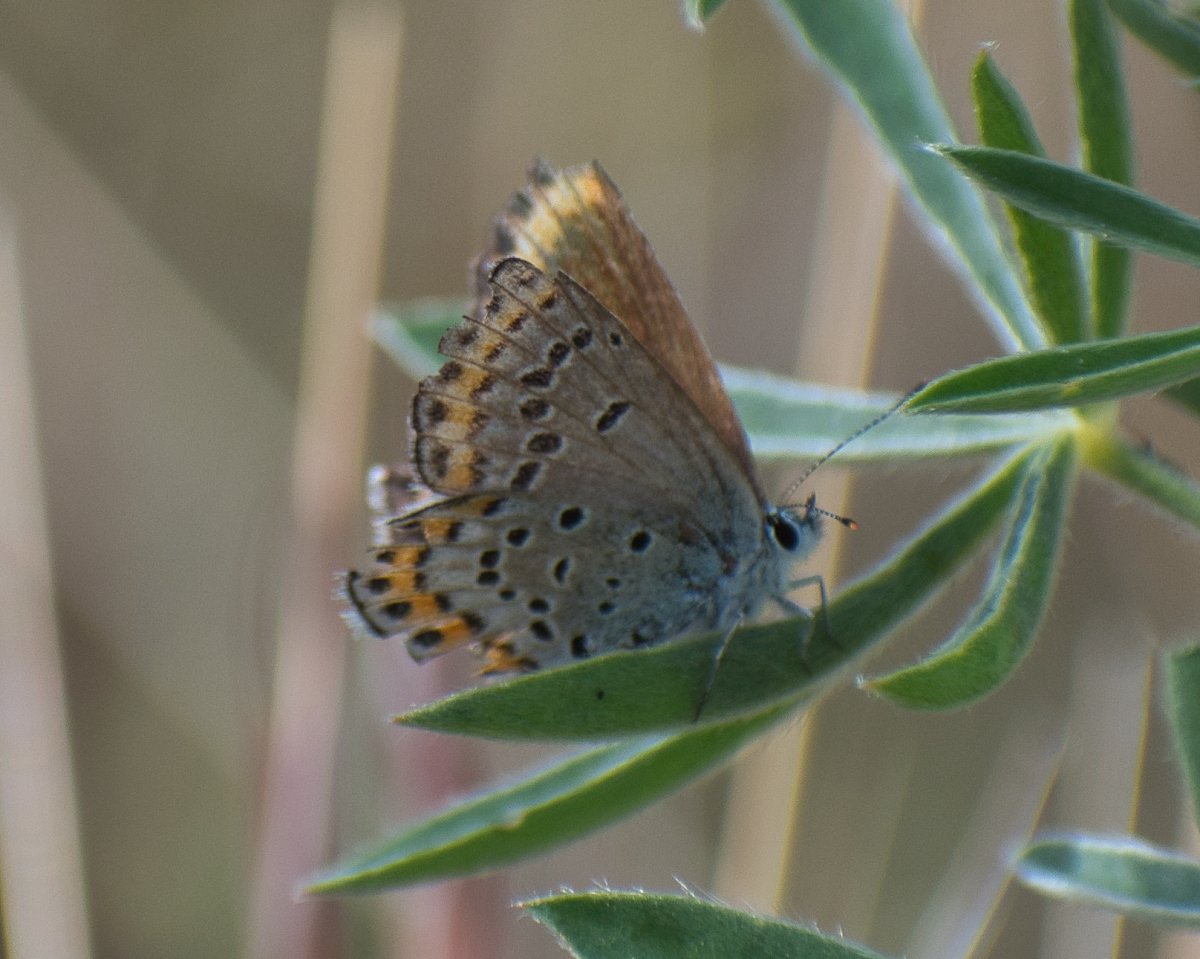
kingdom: Animalia
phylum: Arthropoda
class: Insecta
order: Lepidoptera
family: Lycaenidae
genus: Lycaeides
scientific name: Lycaeides melissa
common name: Melissa Blue
